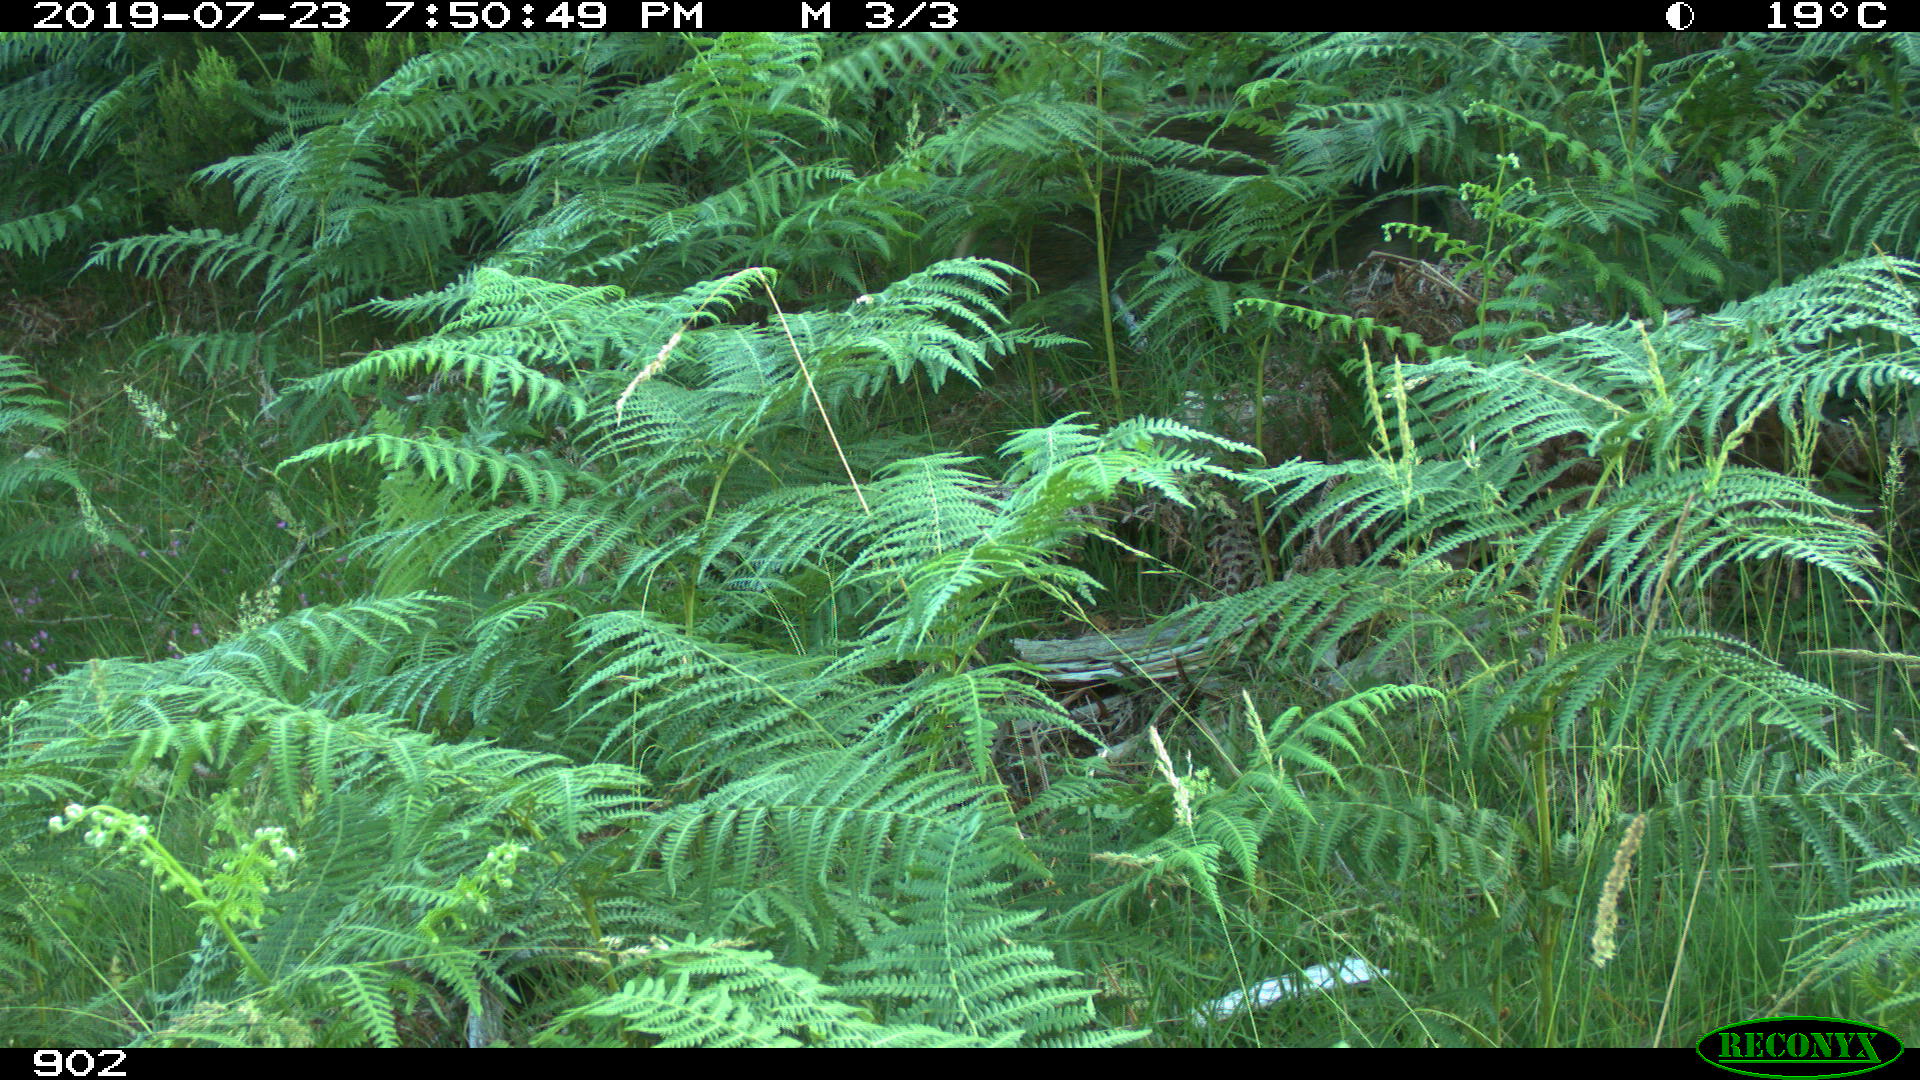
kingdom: Animalia
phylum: Chordata
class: Mammalia
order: Artiodactyla
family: Suidae
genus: Sus
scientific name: Sus scrofa
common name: Wild boar
